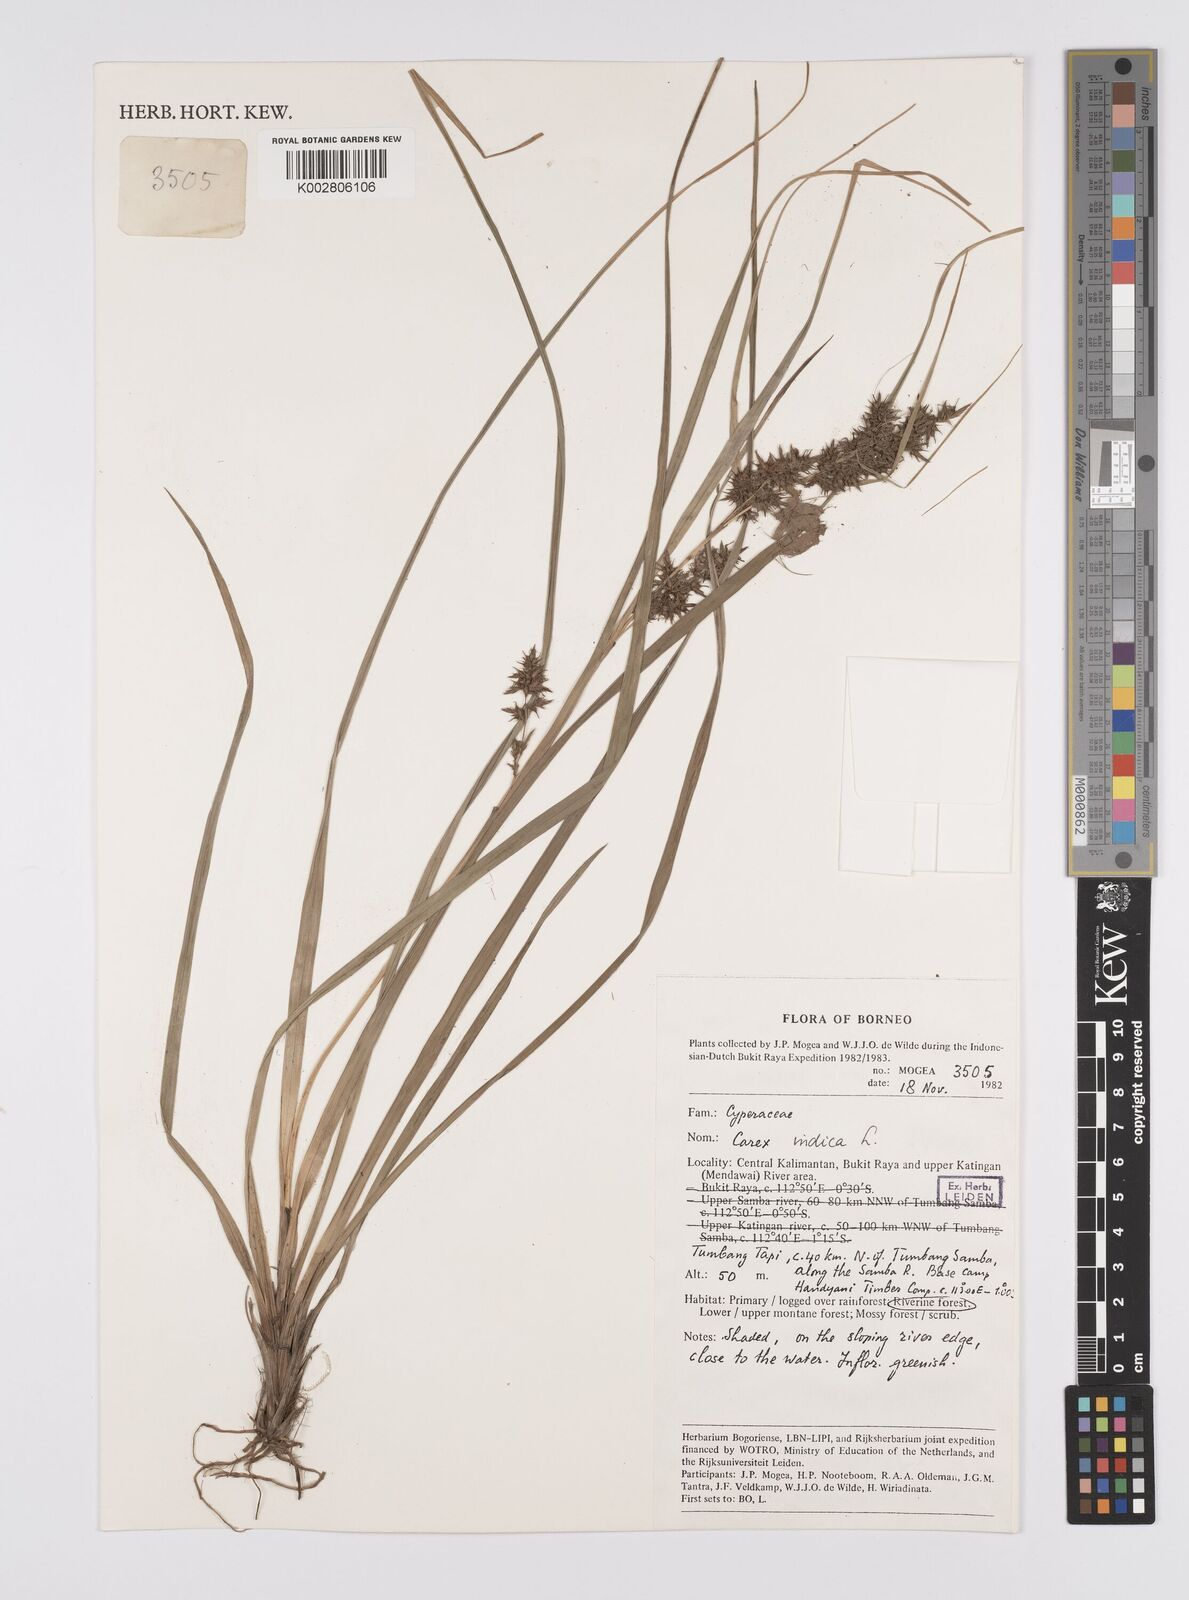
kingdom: Plantae
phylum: Tracheophyta
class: Liliopsida
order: Poales
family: Cyperaceae
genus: Carex
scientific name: Carex indica
